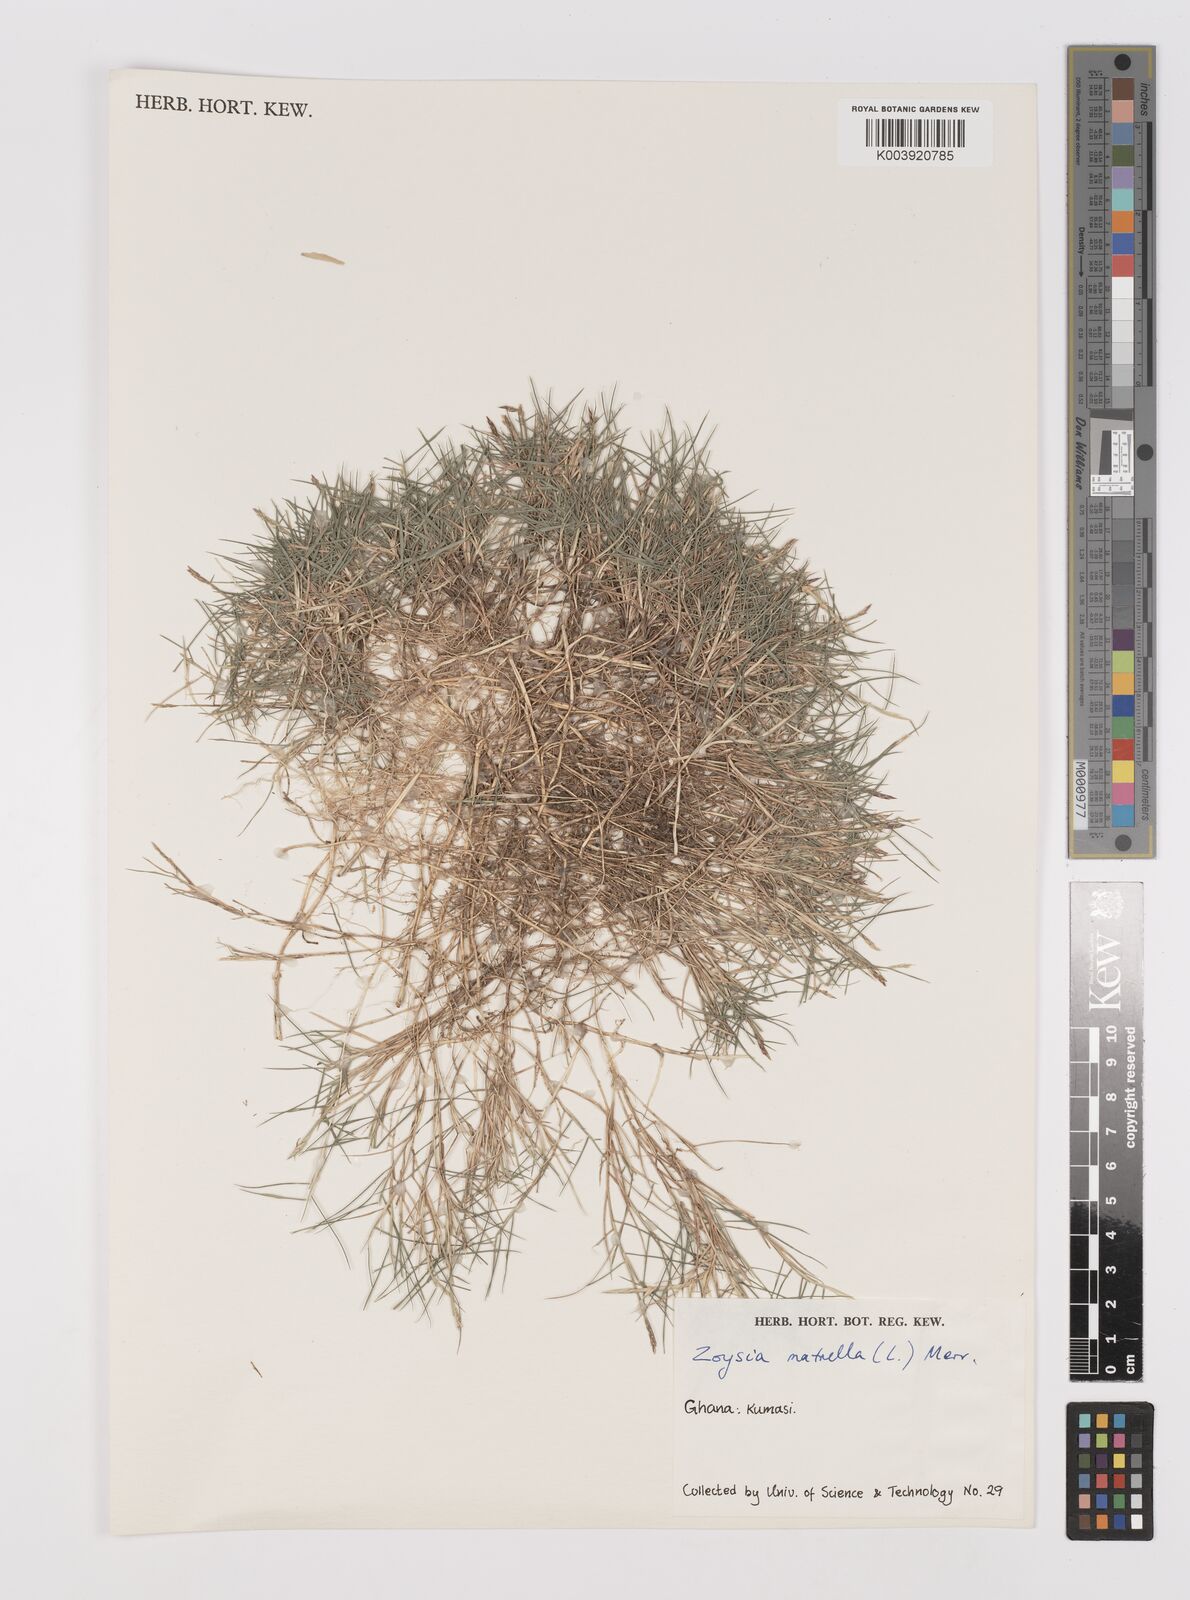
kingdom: Plantae
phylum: Tracheophyta
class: Liliopsida
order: Poales
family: Poaceae
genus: Zoysia
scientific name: Zoysia matrella
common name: Manila grass
